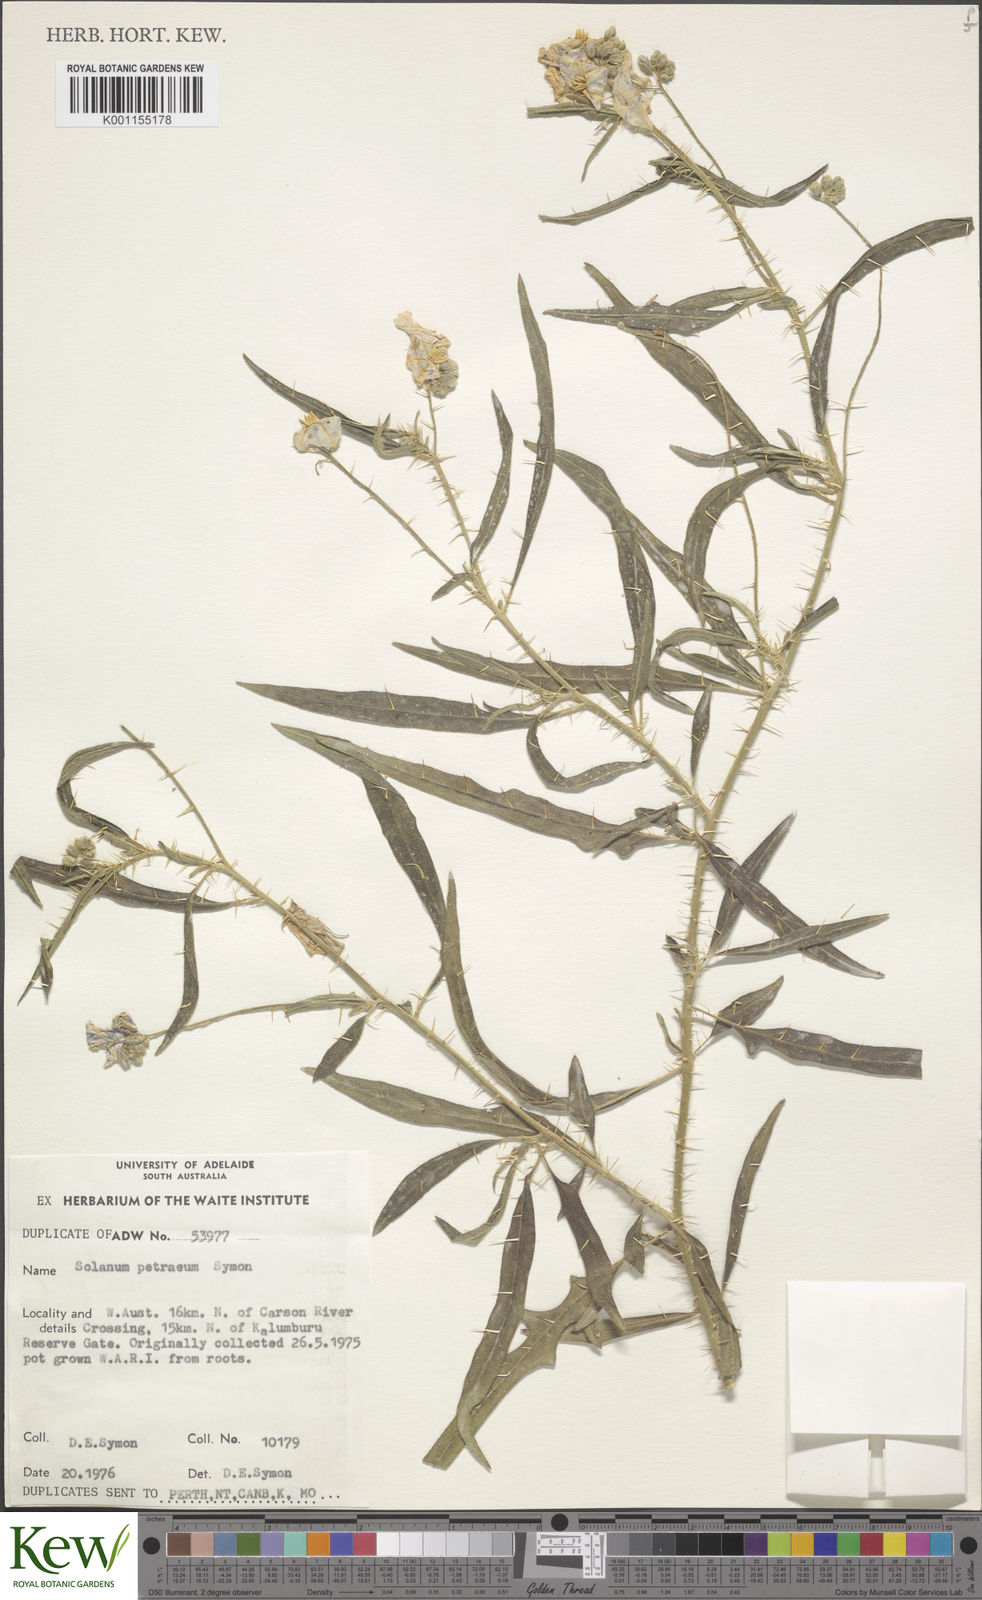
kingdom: Plantae
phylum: Tracheophyta
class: Magnoliopsida
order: Solanales
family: Solanaceae
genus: Solanum
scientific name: Solanum petraeum
